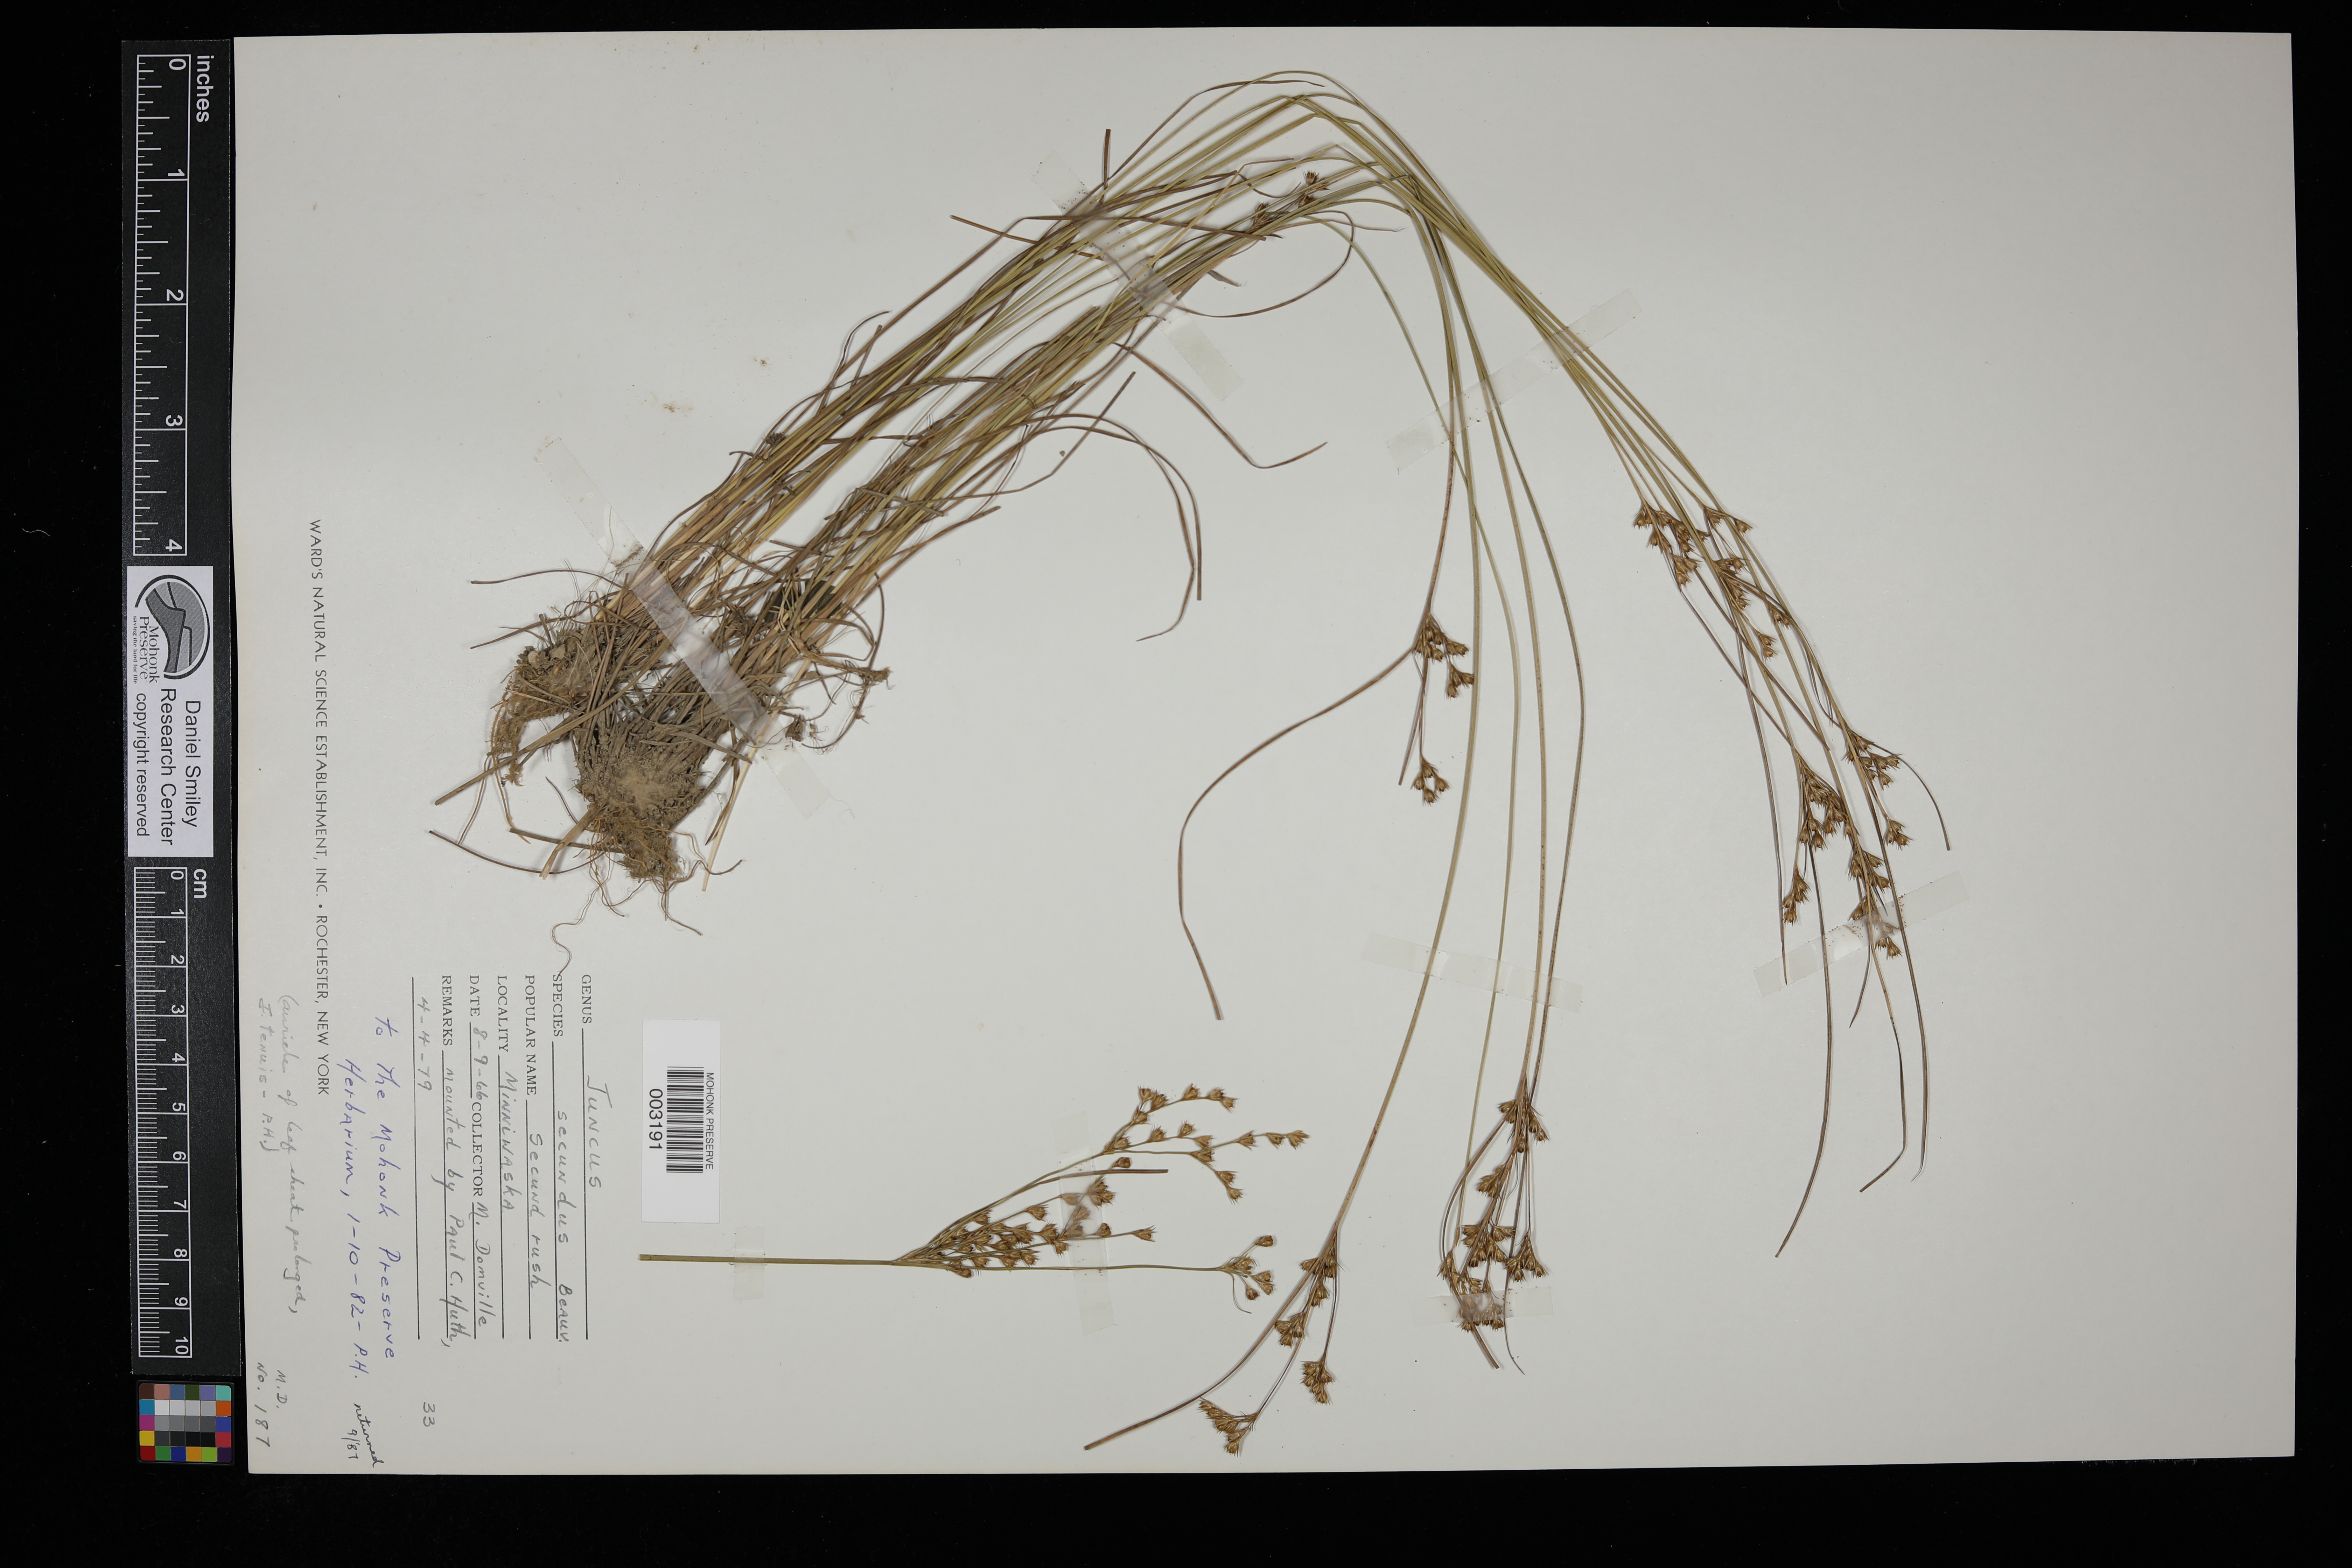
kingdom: Plantae
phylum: Tracheophyta
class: Liliopsida
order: Poales
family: Juncaceae
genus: Juncus
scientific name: Juncus secundus
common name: Lopsided rush
